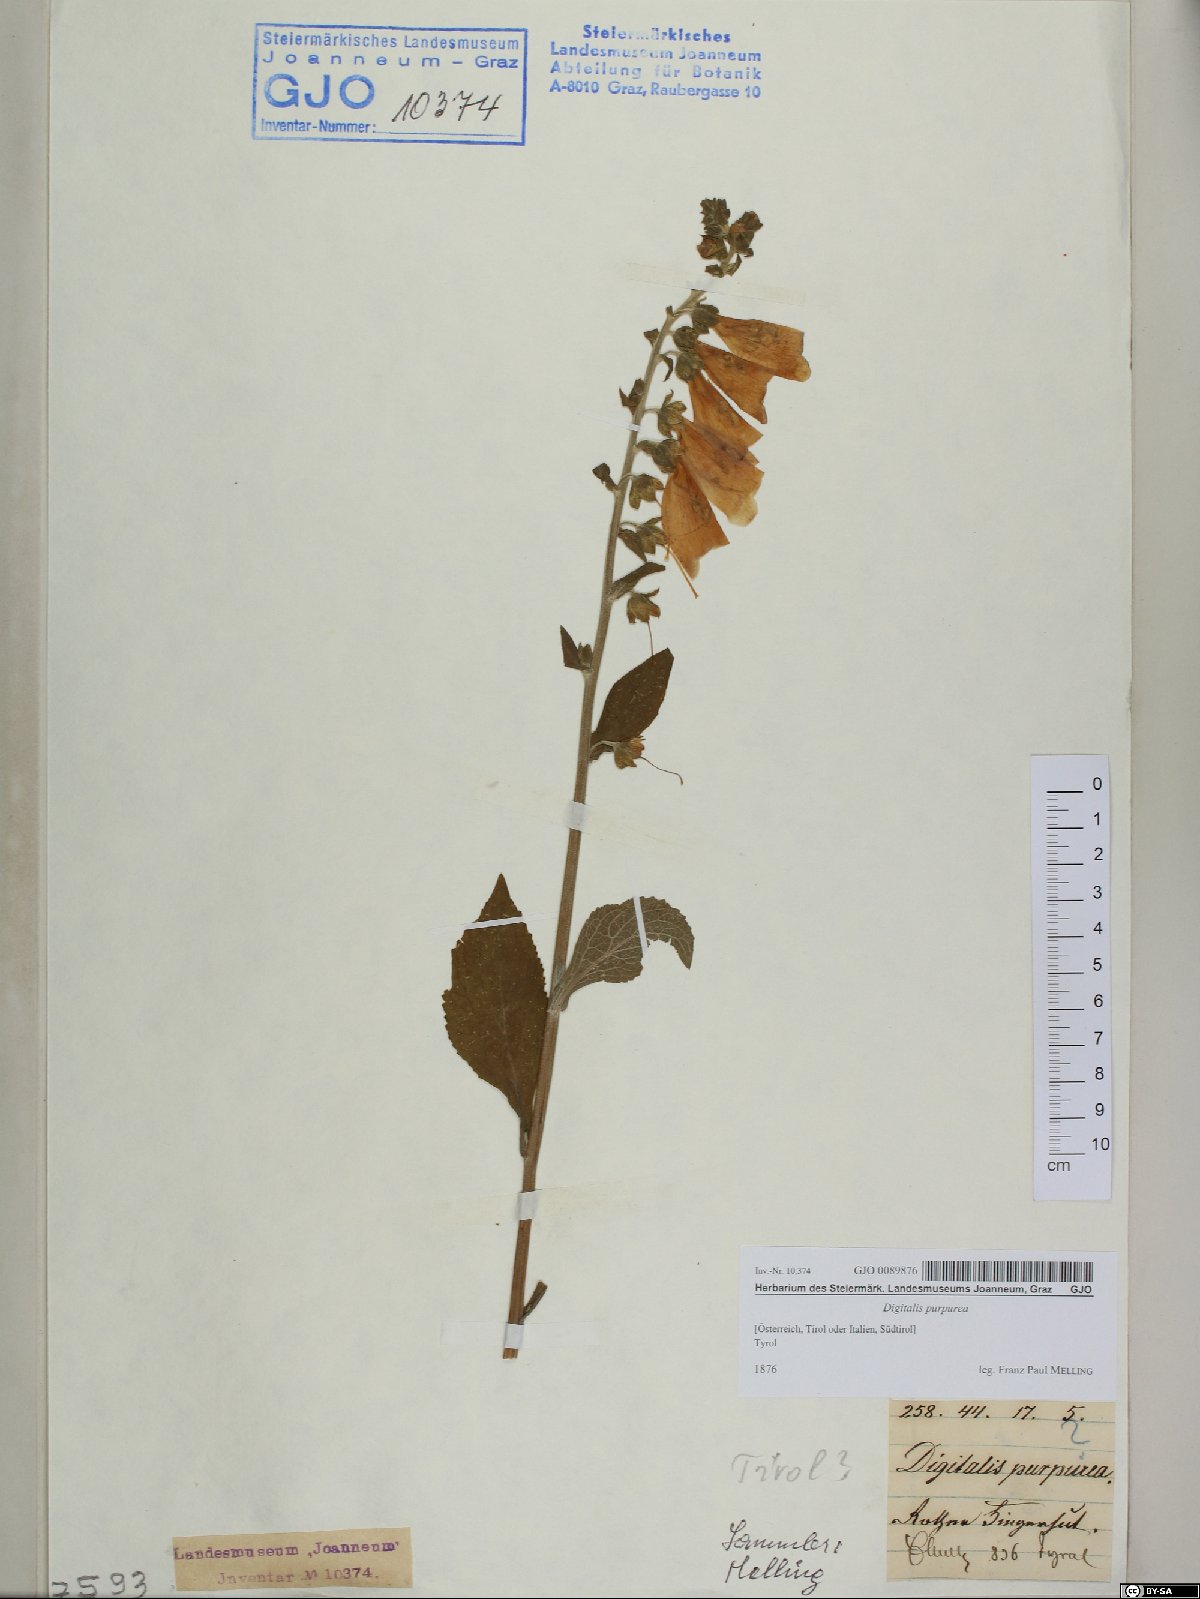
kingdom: Plantae
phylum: Tracheophyta
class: Magnoliopsida
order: Lamiales
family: Plantaginaceae
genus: Digitalis
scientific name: Digitalis purpurea
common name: Foxglove
